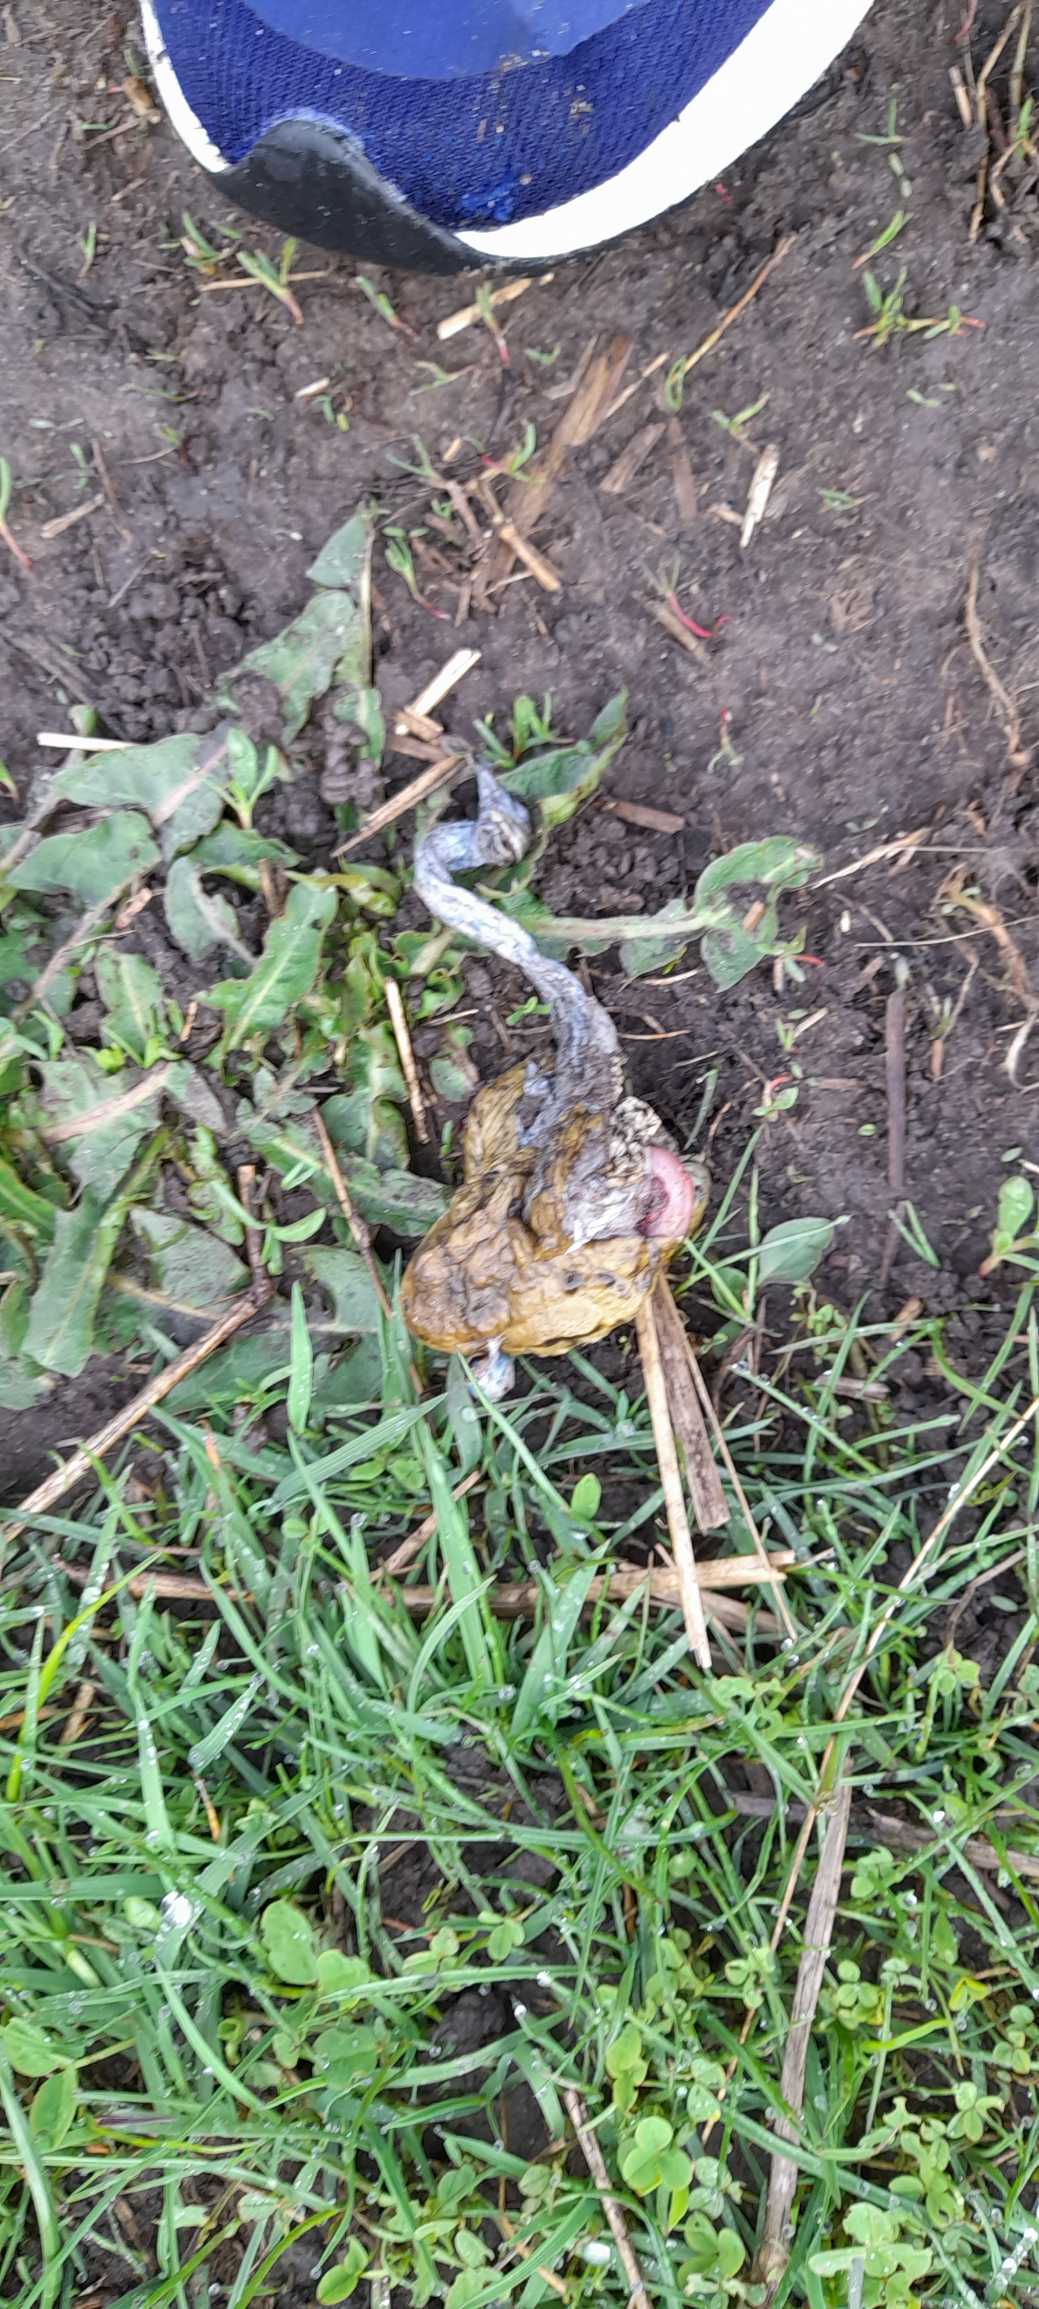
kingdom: Animalia
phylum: Chordata
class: Amphibia
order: Anura
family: Bufonidae
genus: Bufo
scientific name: Bufo bufo
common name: Skrubtudse
